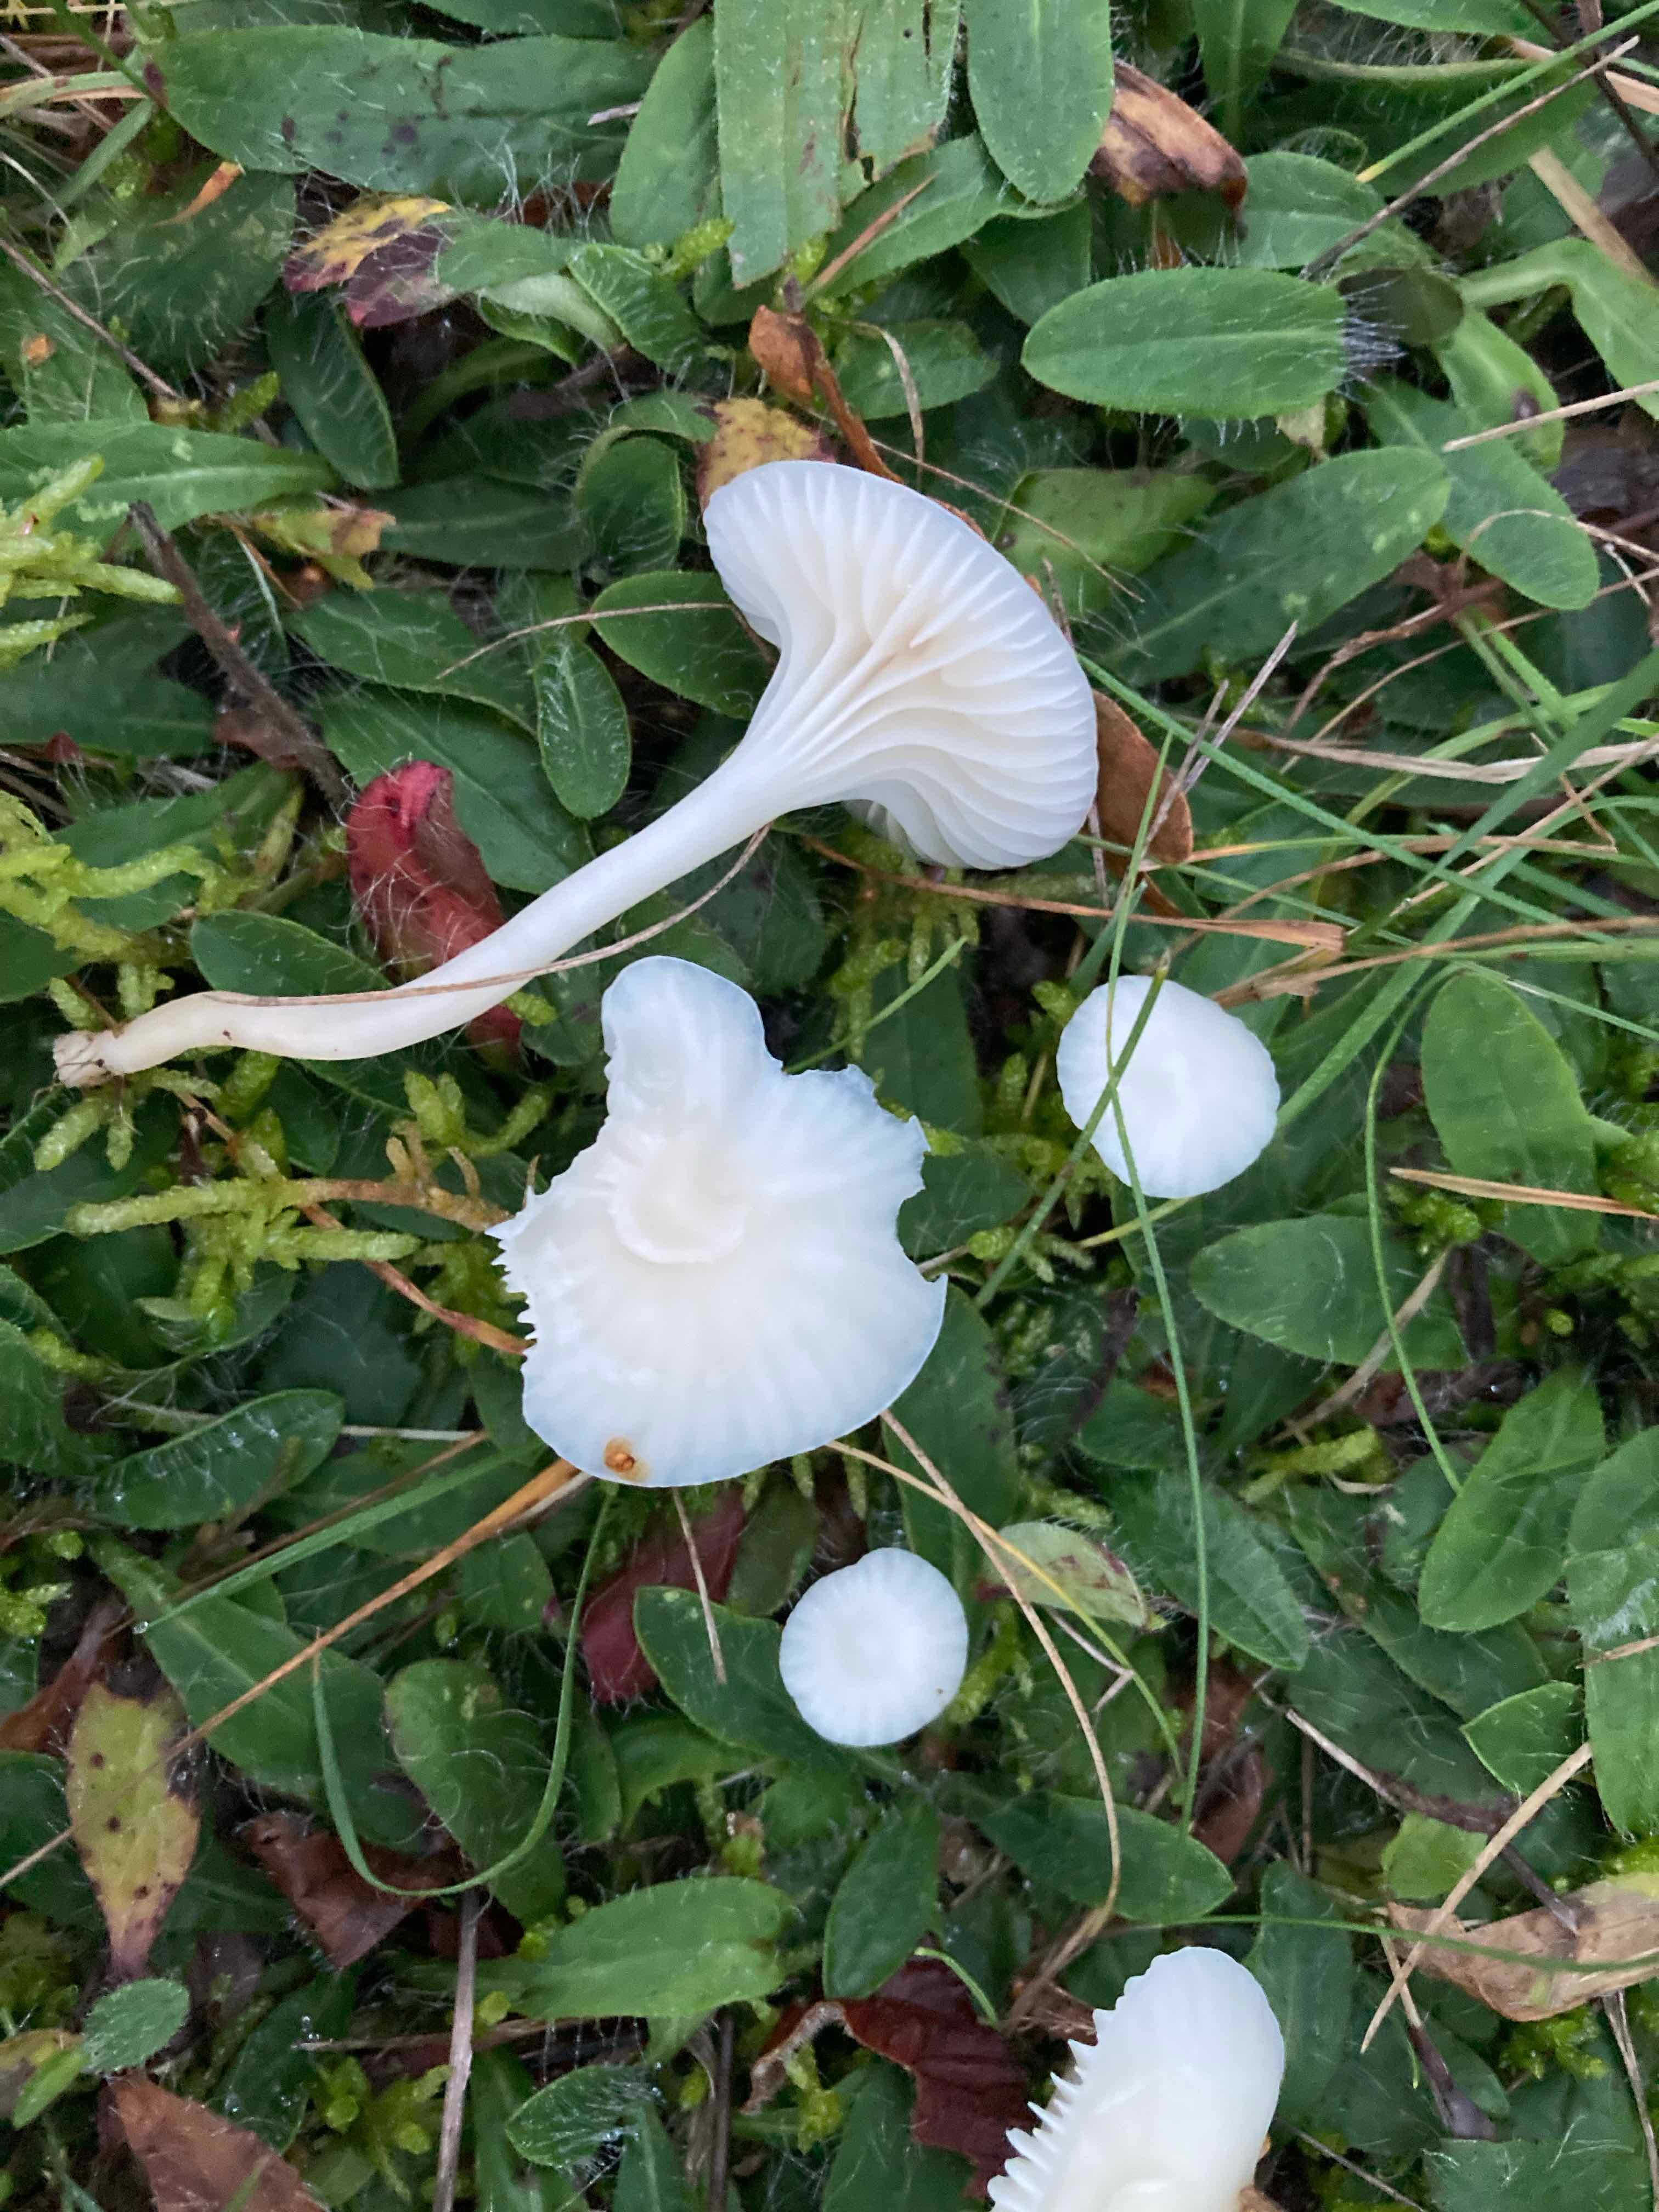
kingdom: Fungi
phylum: Basidiomycota
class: Agaricomycetes
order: Agaricales
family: Hygrophoraceae
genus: Cuphophyllus
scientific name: Cuphophyllus virgineus
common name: snehvid vokshat
